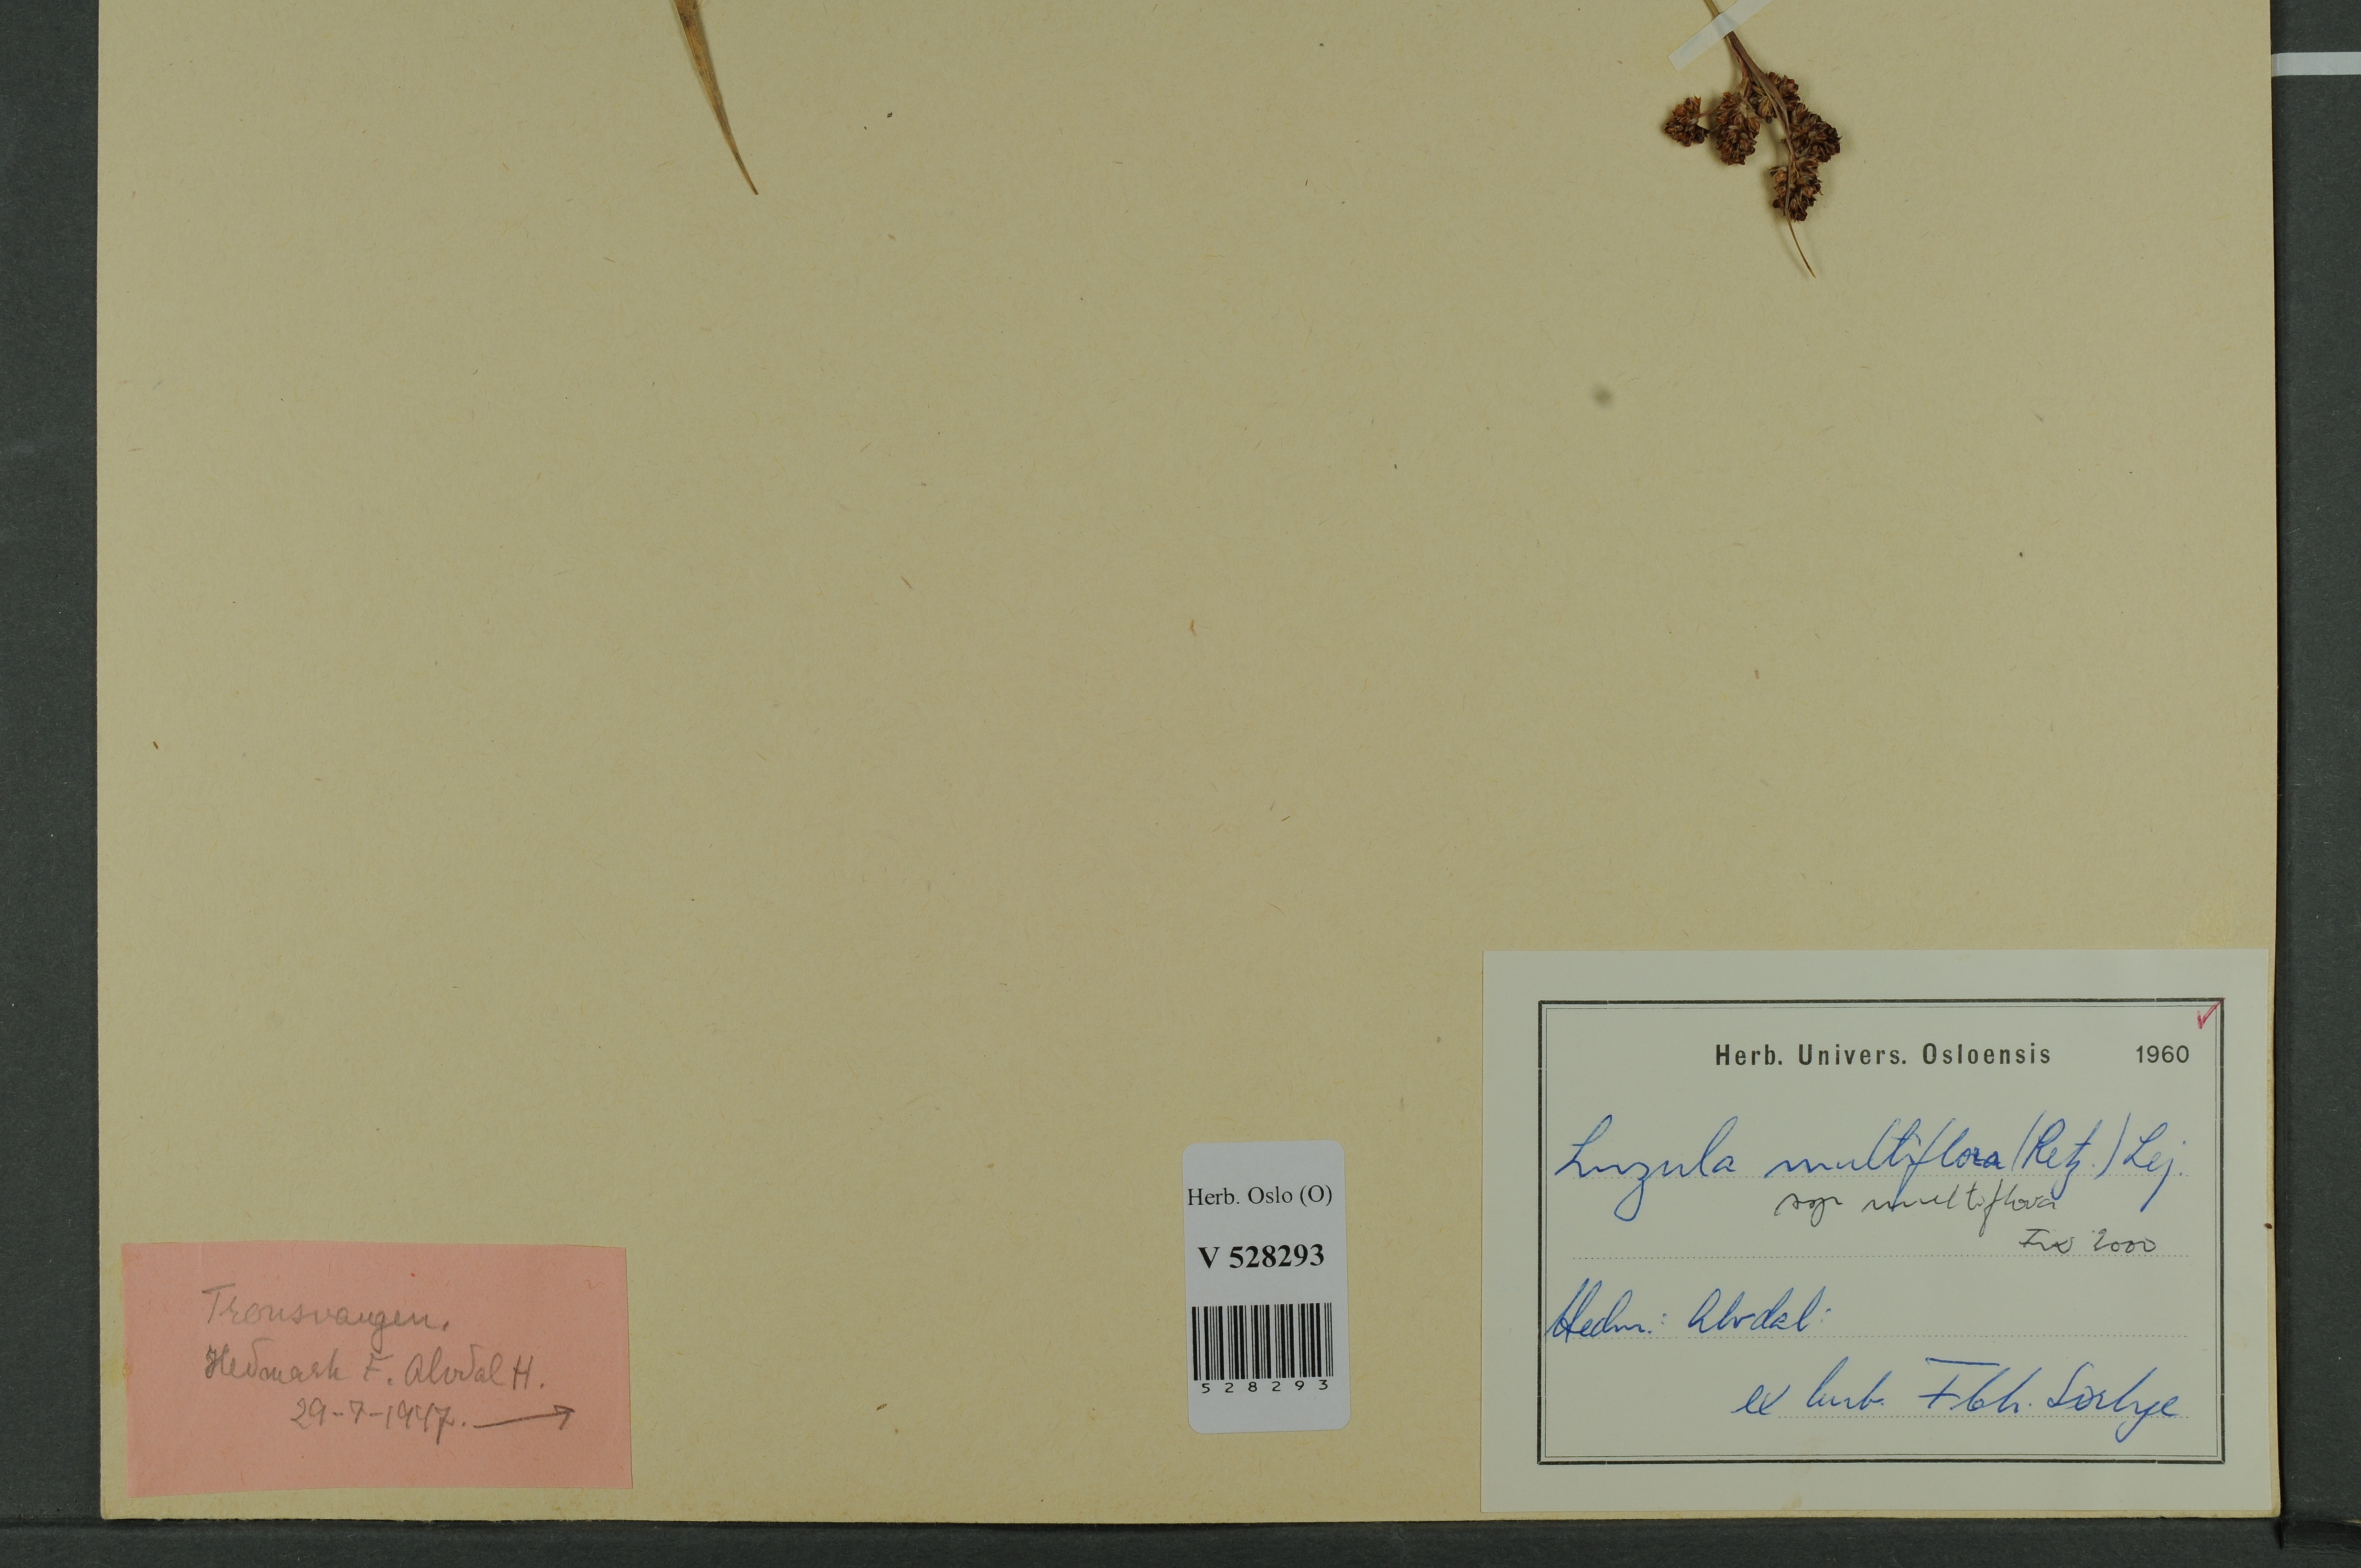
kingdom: Plantae
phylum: Tracheophyta
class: Liliopsida
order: Poales
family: Juncaceae
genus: Luzula
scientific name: Luzula multiflora
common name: Heath wood-rush
